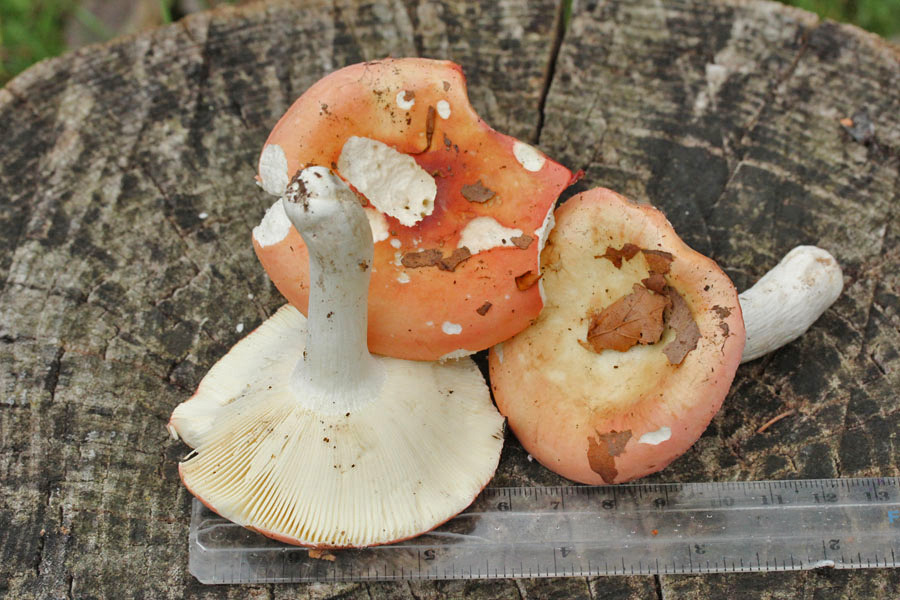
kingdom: Fungi
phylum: Basidiomycota
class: Agaricomycetes
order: Russulales
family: Russulaceae
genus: Russula
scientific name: Russula aurora
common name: rosa skørhat
